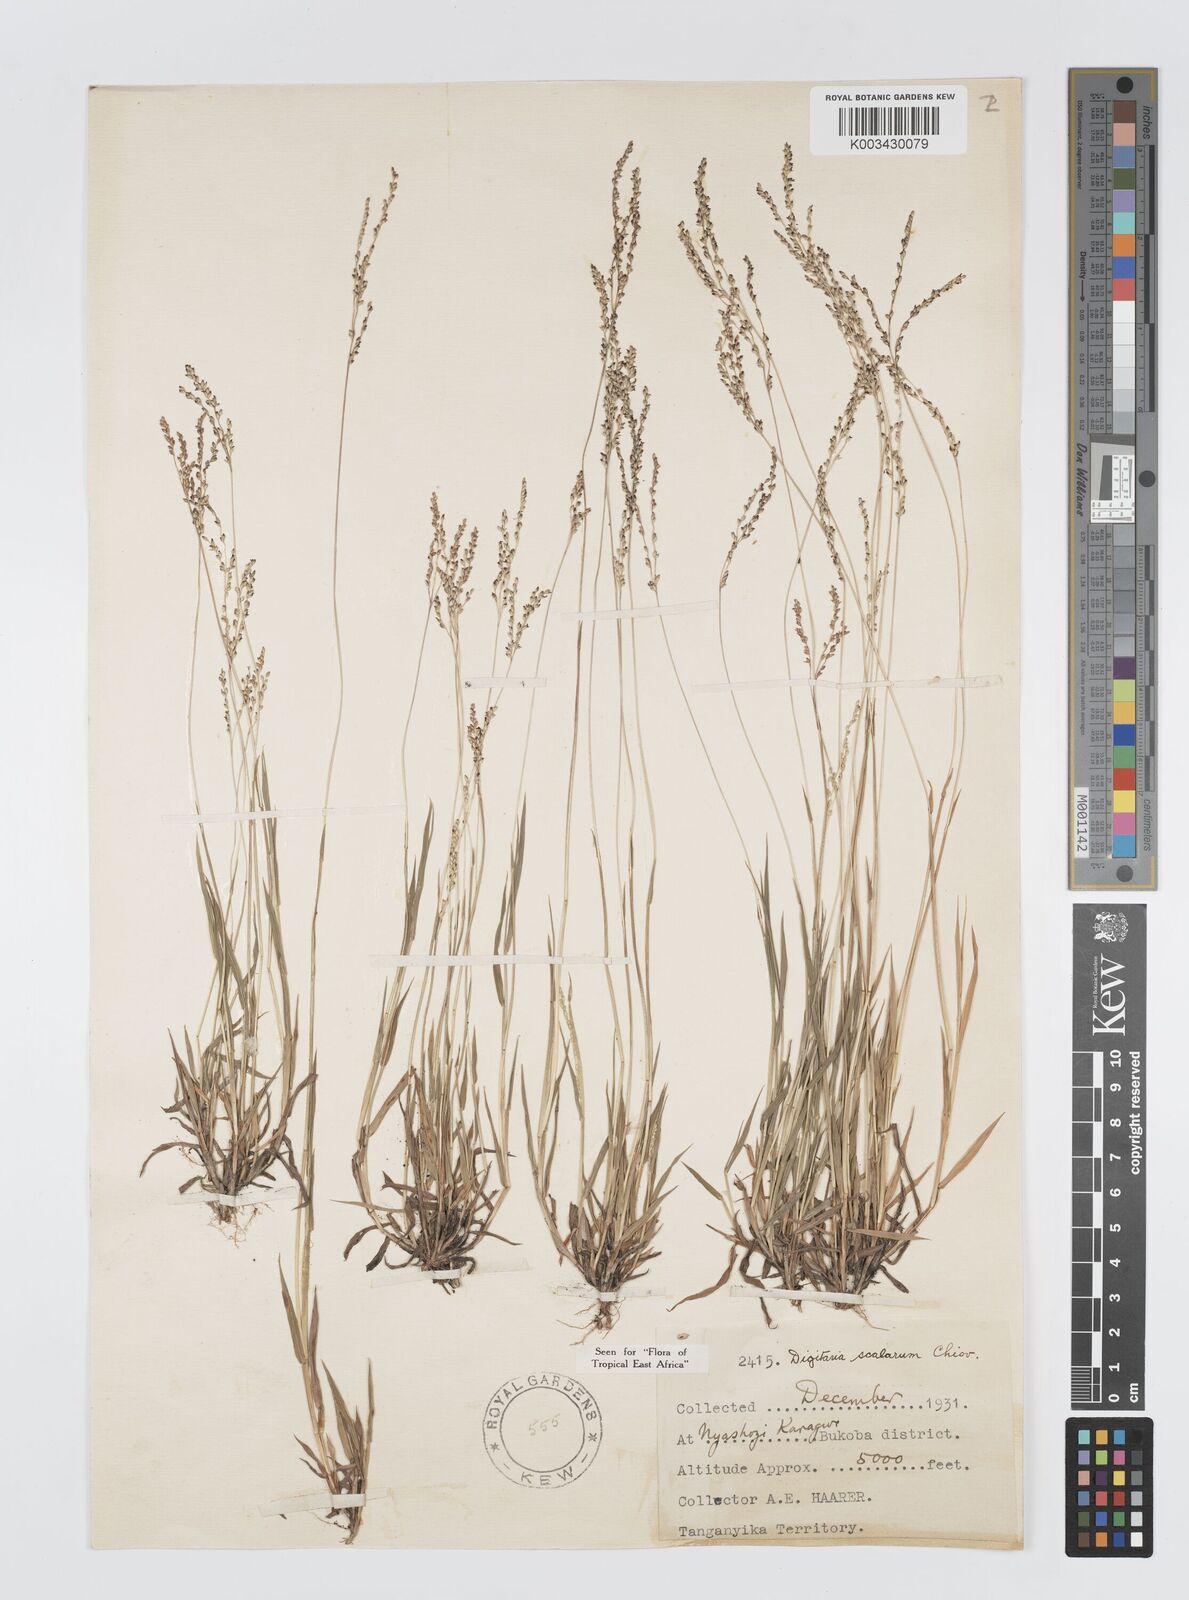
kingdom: Plantae
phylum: Tracheophyta
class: Liliopsida
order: Poales
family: Poaceae
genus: Digitaria
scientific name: Digitaria abyssinica
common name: African couchgrass
